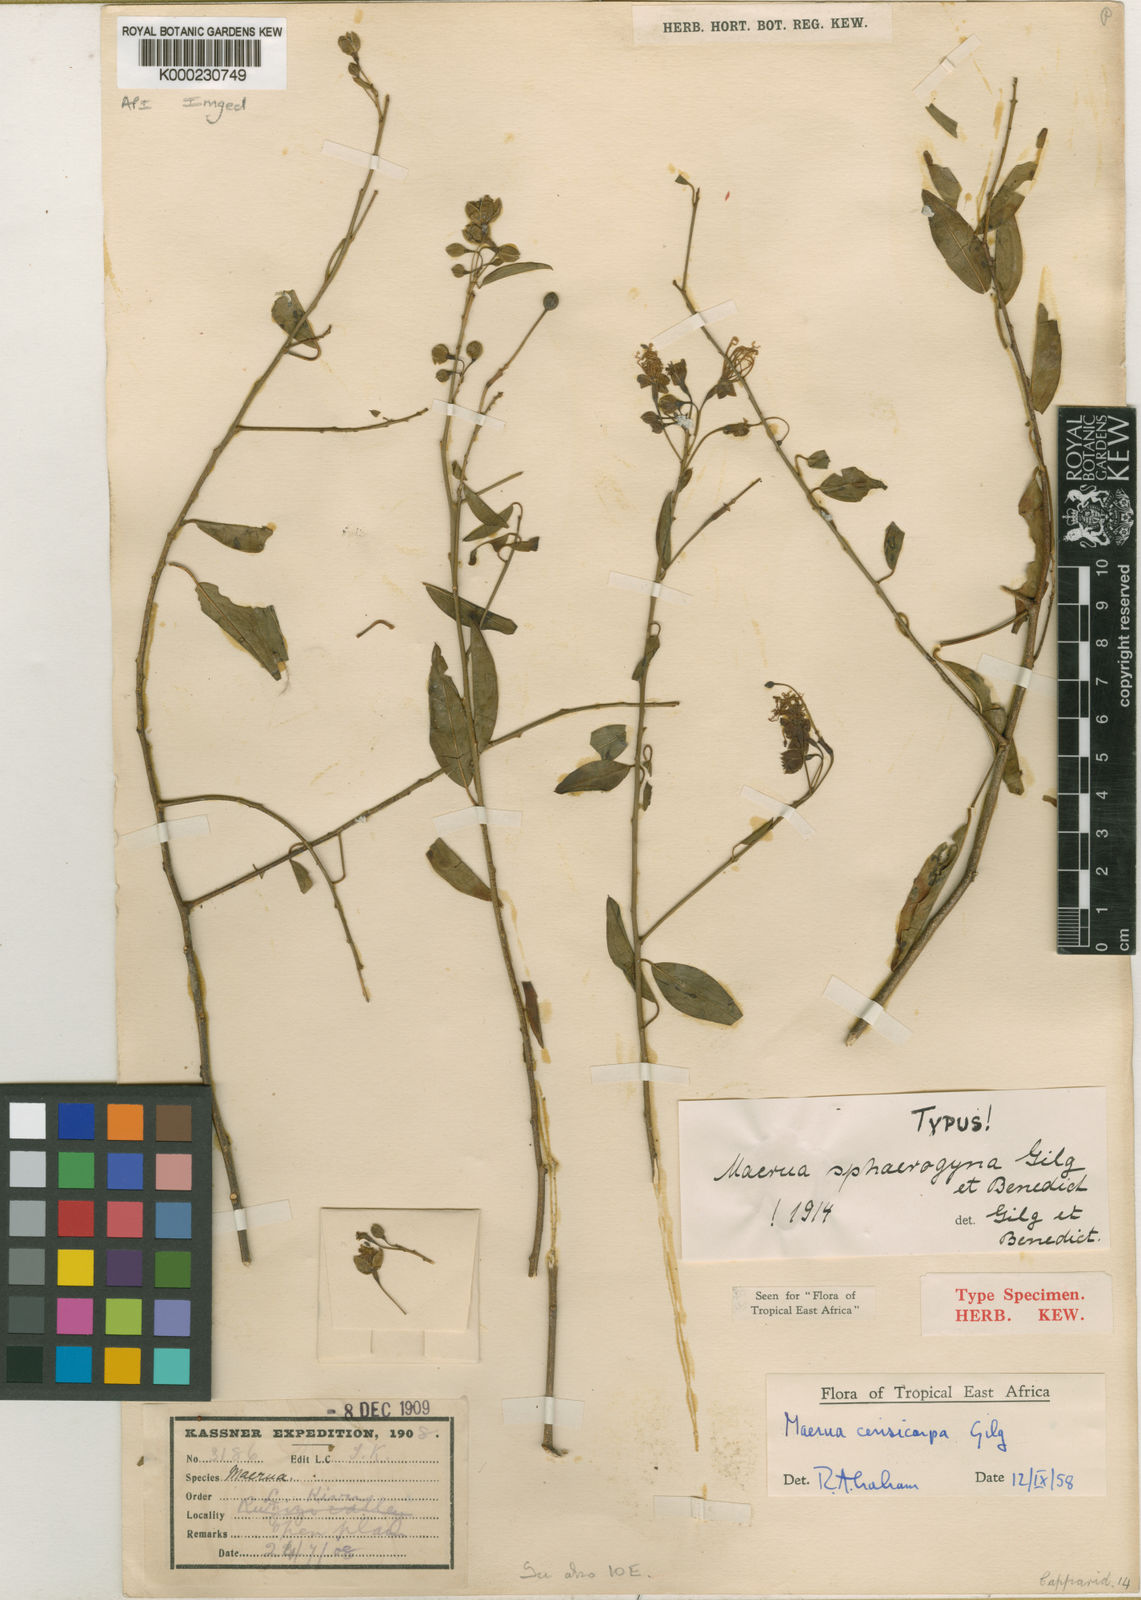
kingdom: Plantae
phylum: Tracheophyta
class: Magnoliopsida
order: Brassicales
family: Capparaceae
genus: Maerua
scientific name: Maerua aethiopica
